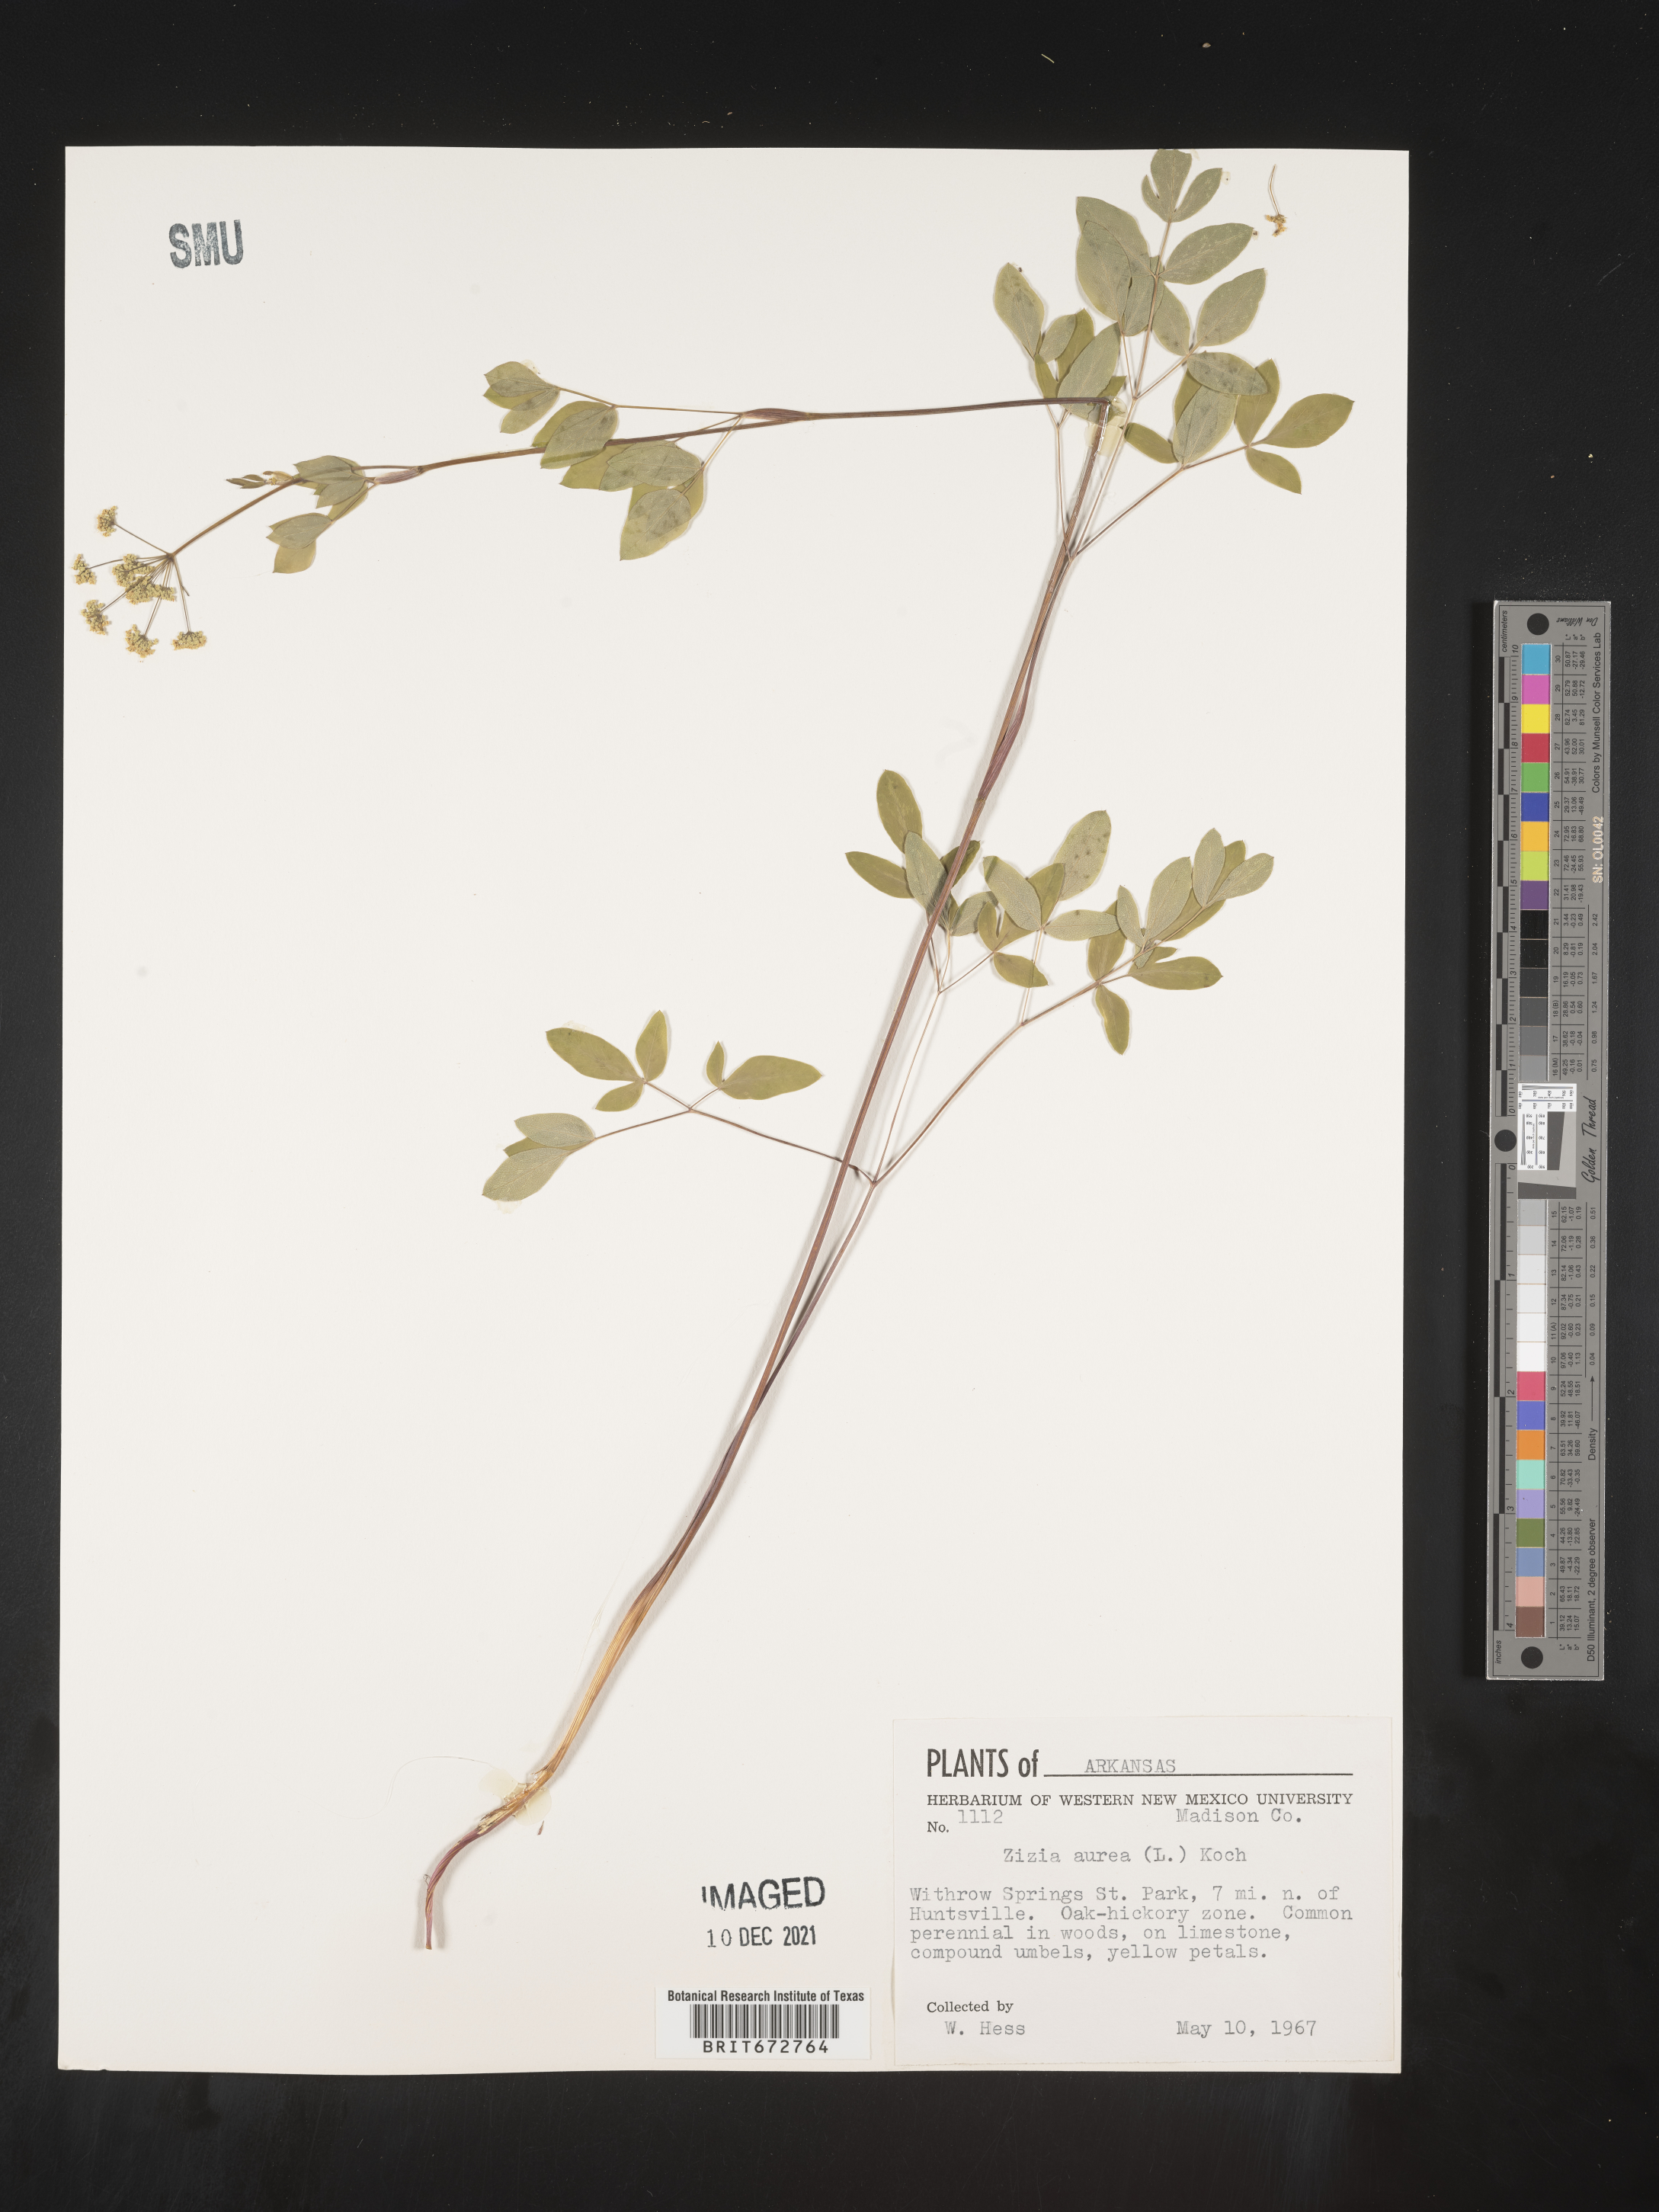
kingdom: Plantae
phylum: Tracheophyta
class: Magnoliopsida
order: Apiales
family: Apiaceae
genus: Taenidia
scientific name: Taenidia integerrima
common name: Golden alexander
